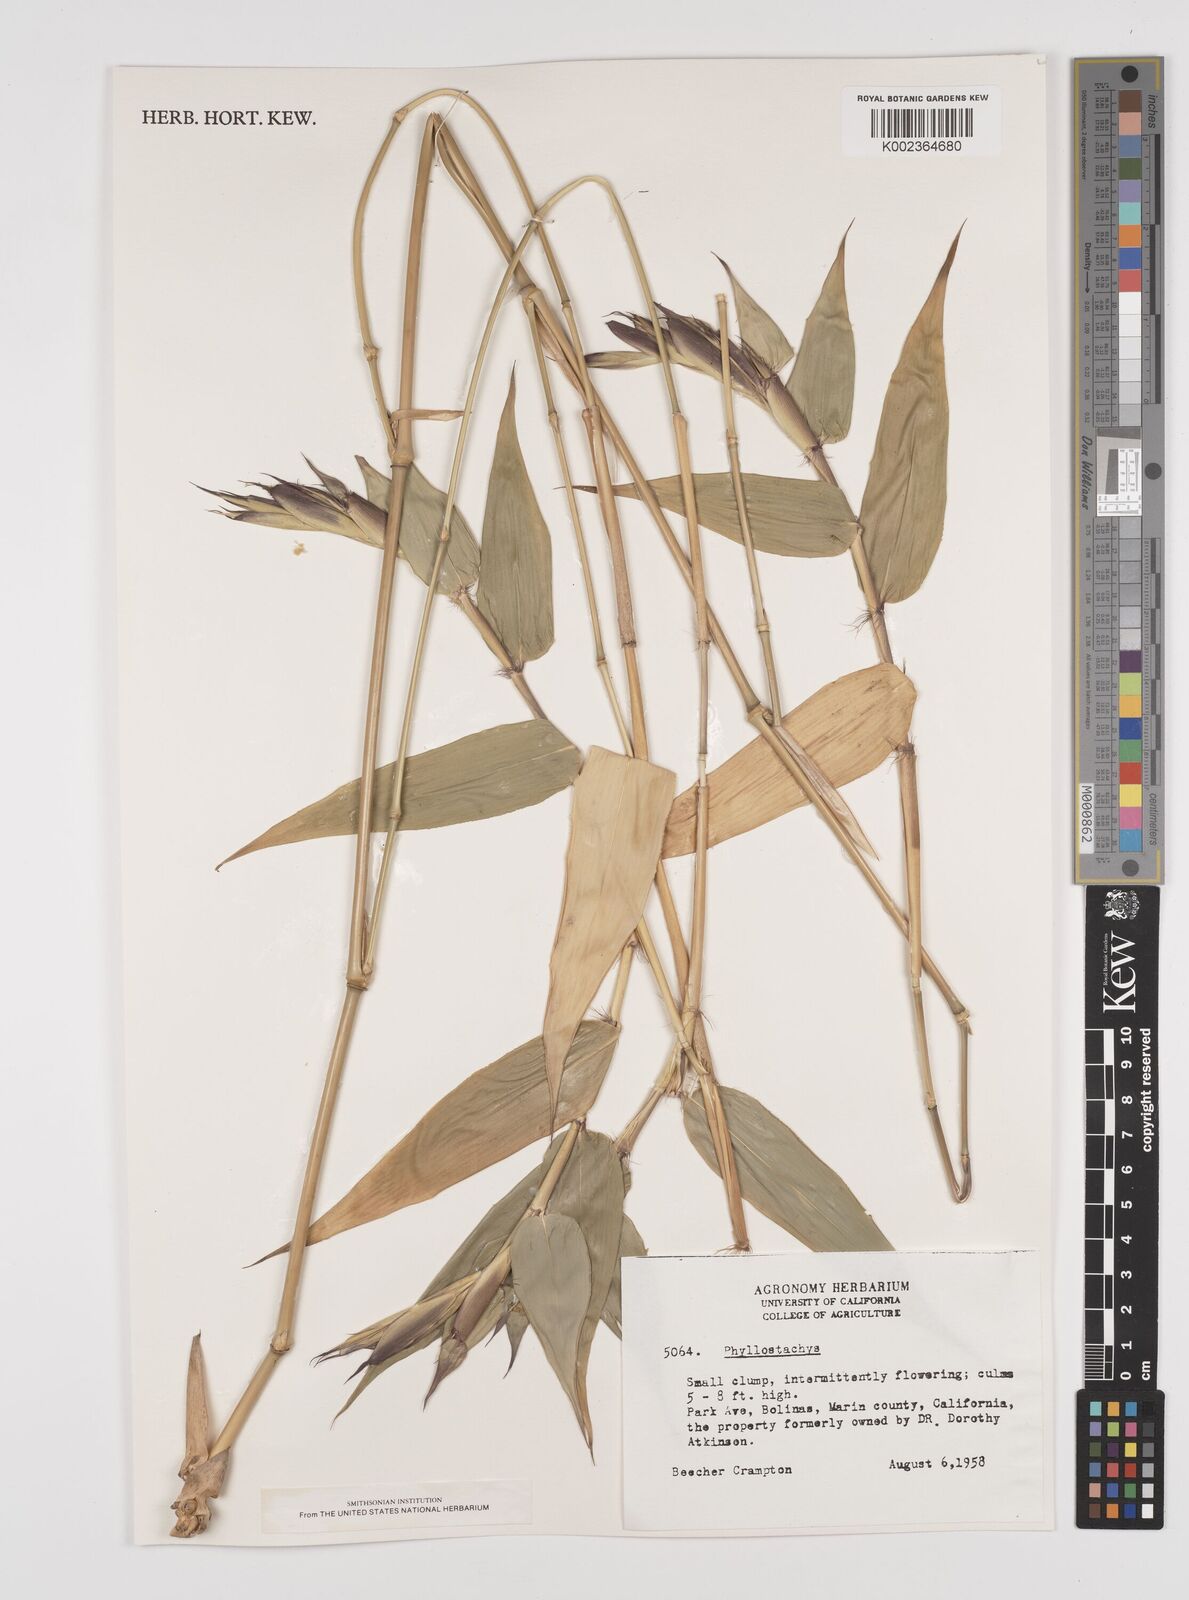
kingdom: Plantae
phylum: Tracheophyta
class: Liliopsida
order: Poales
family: Poaceae
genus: Phyllostachys
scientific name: Phyllostachys
